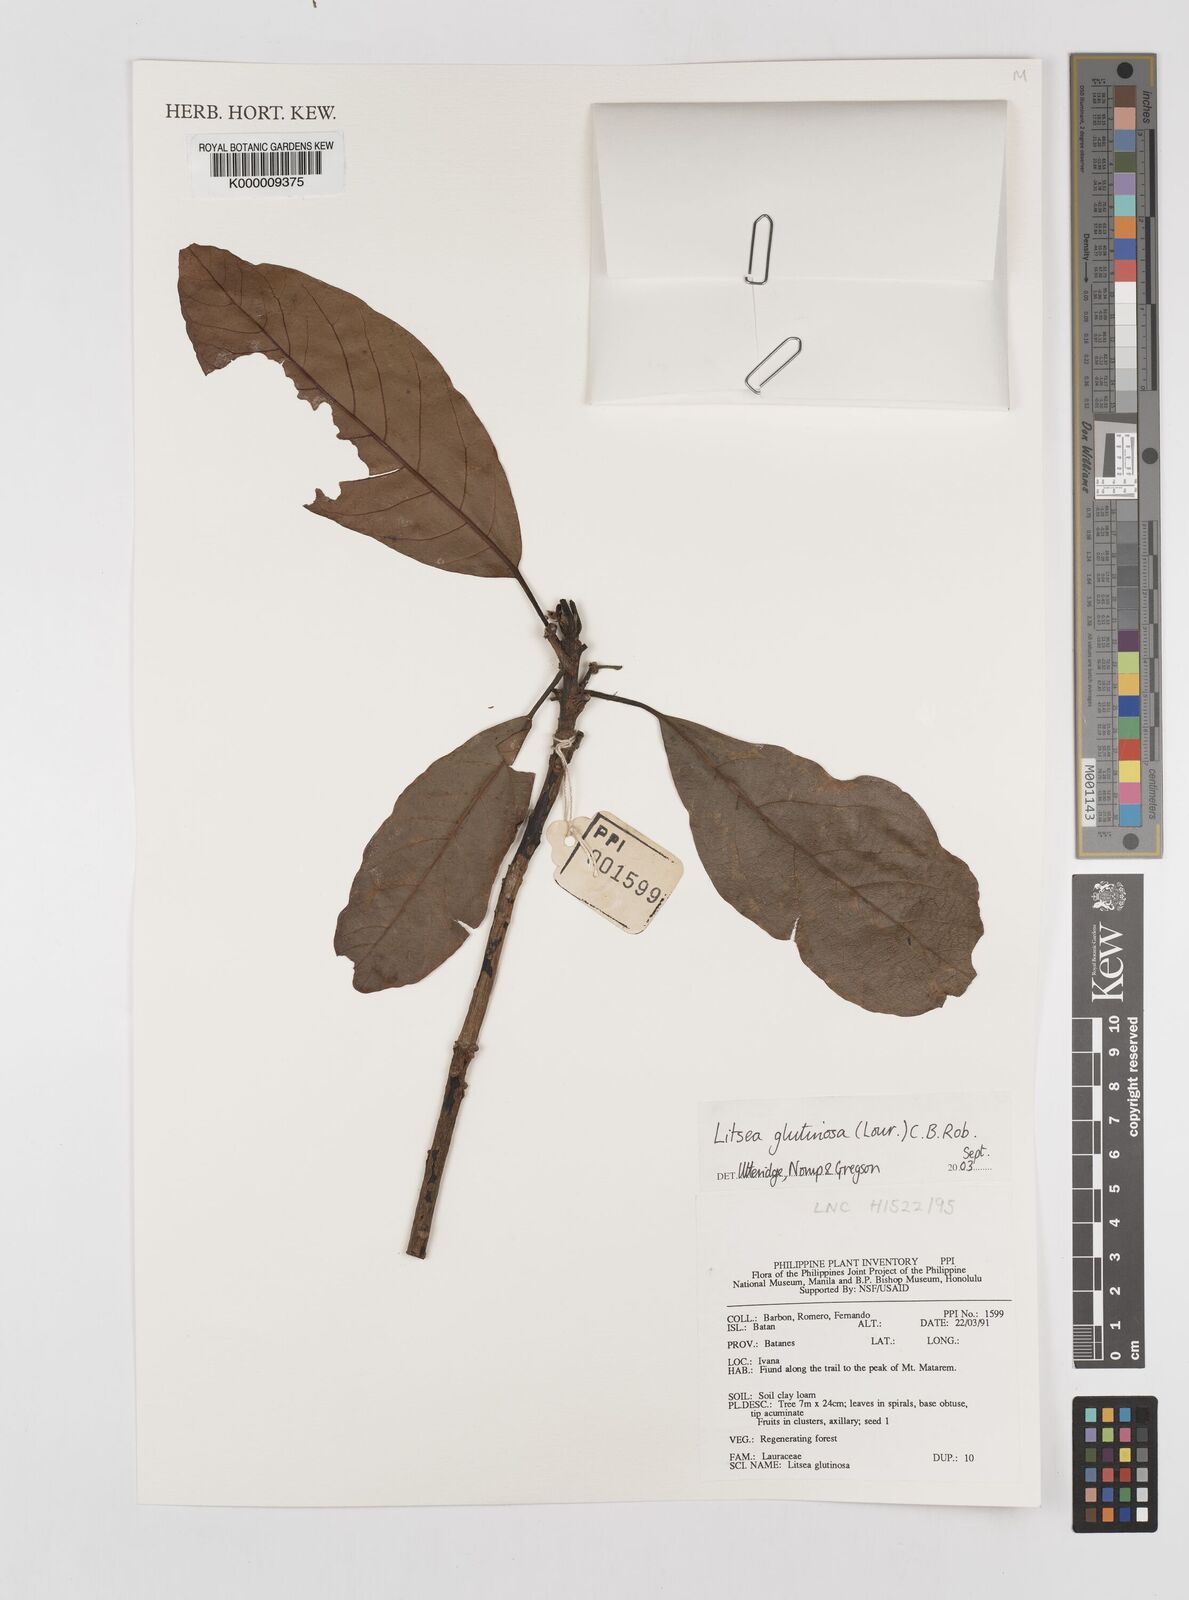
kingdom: Plantae
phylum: Tracheophyta
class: Magnoliopsida
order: Laurales
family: Lauraceae
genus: Litsea
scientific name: Litsea glutinosa
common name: Indian-laurel
